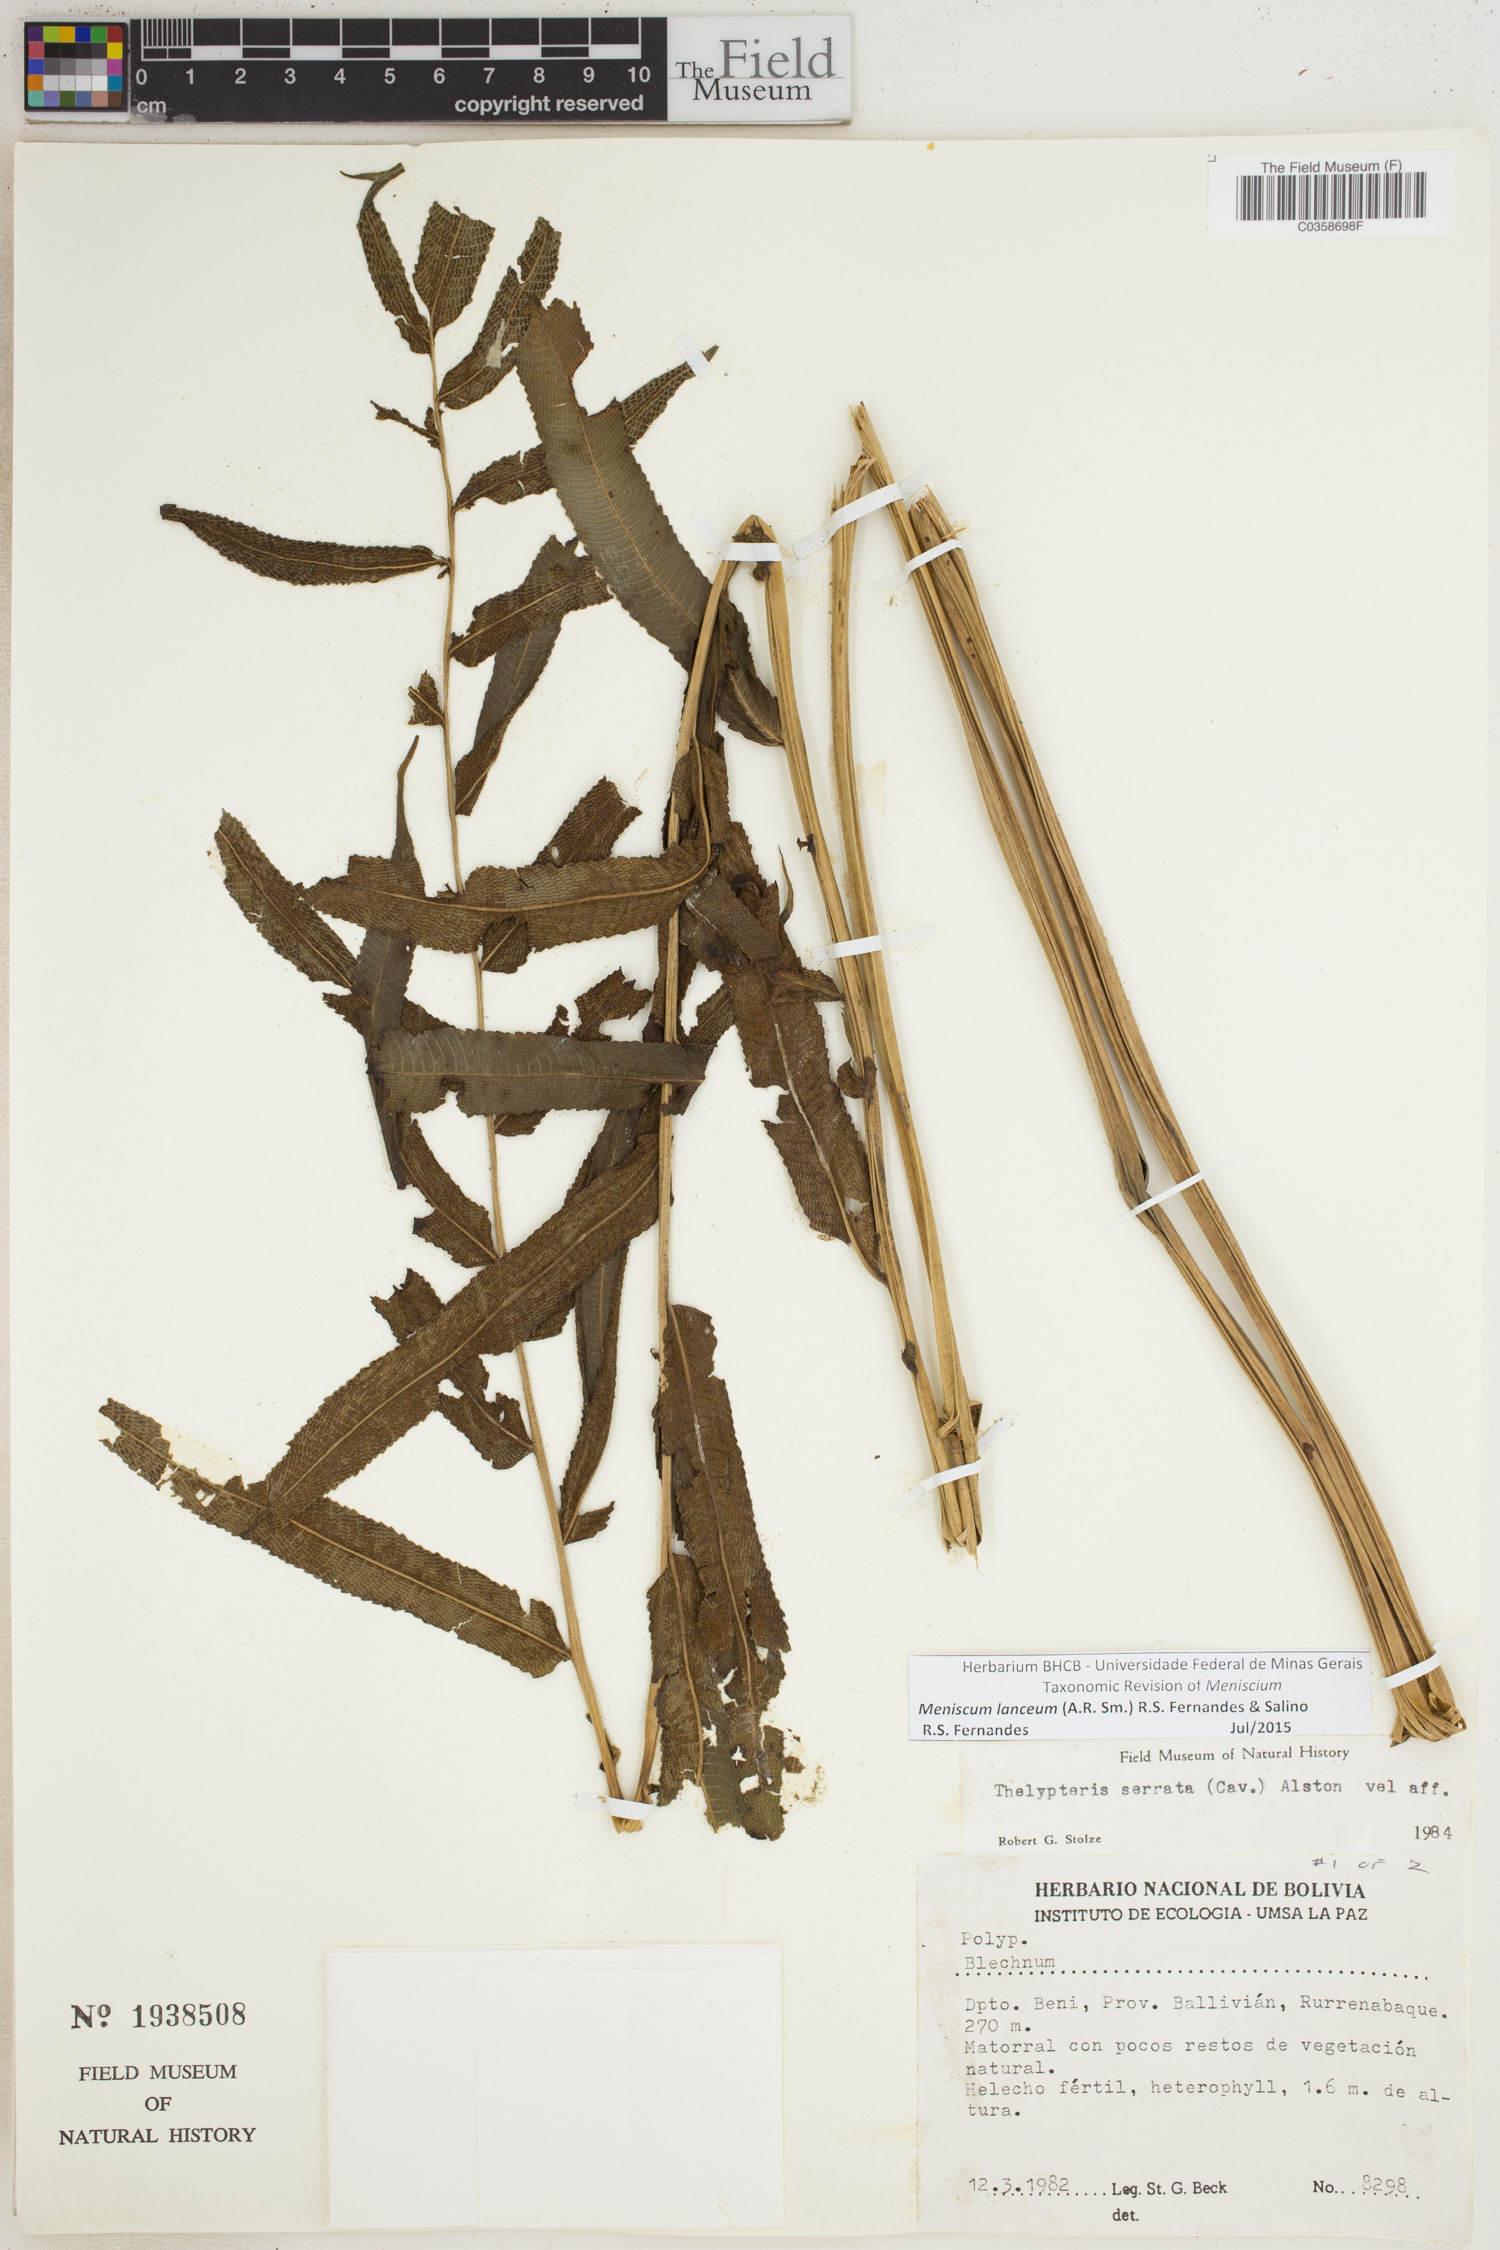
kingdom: Plantae
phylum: Tracheophyta
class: Polypodiopsida
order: Polypodiales
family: Thelypteridaceae
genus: Meniscium
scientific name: Meniscium lanceum
